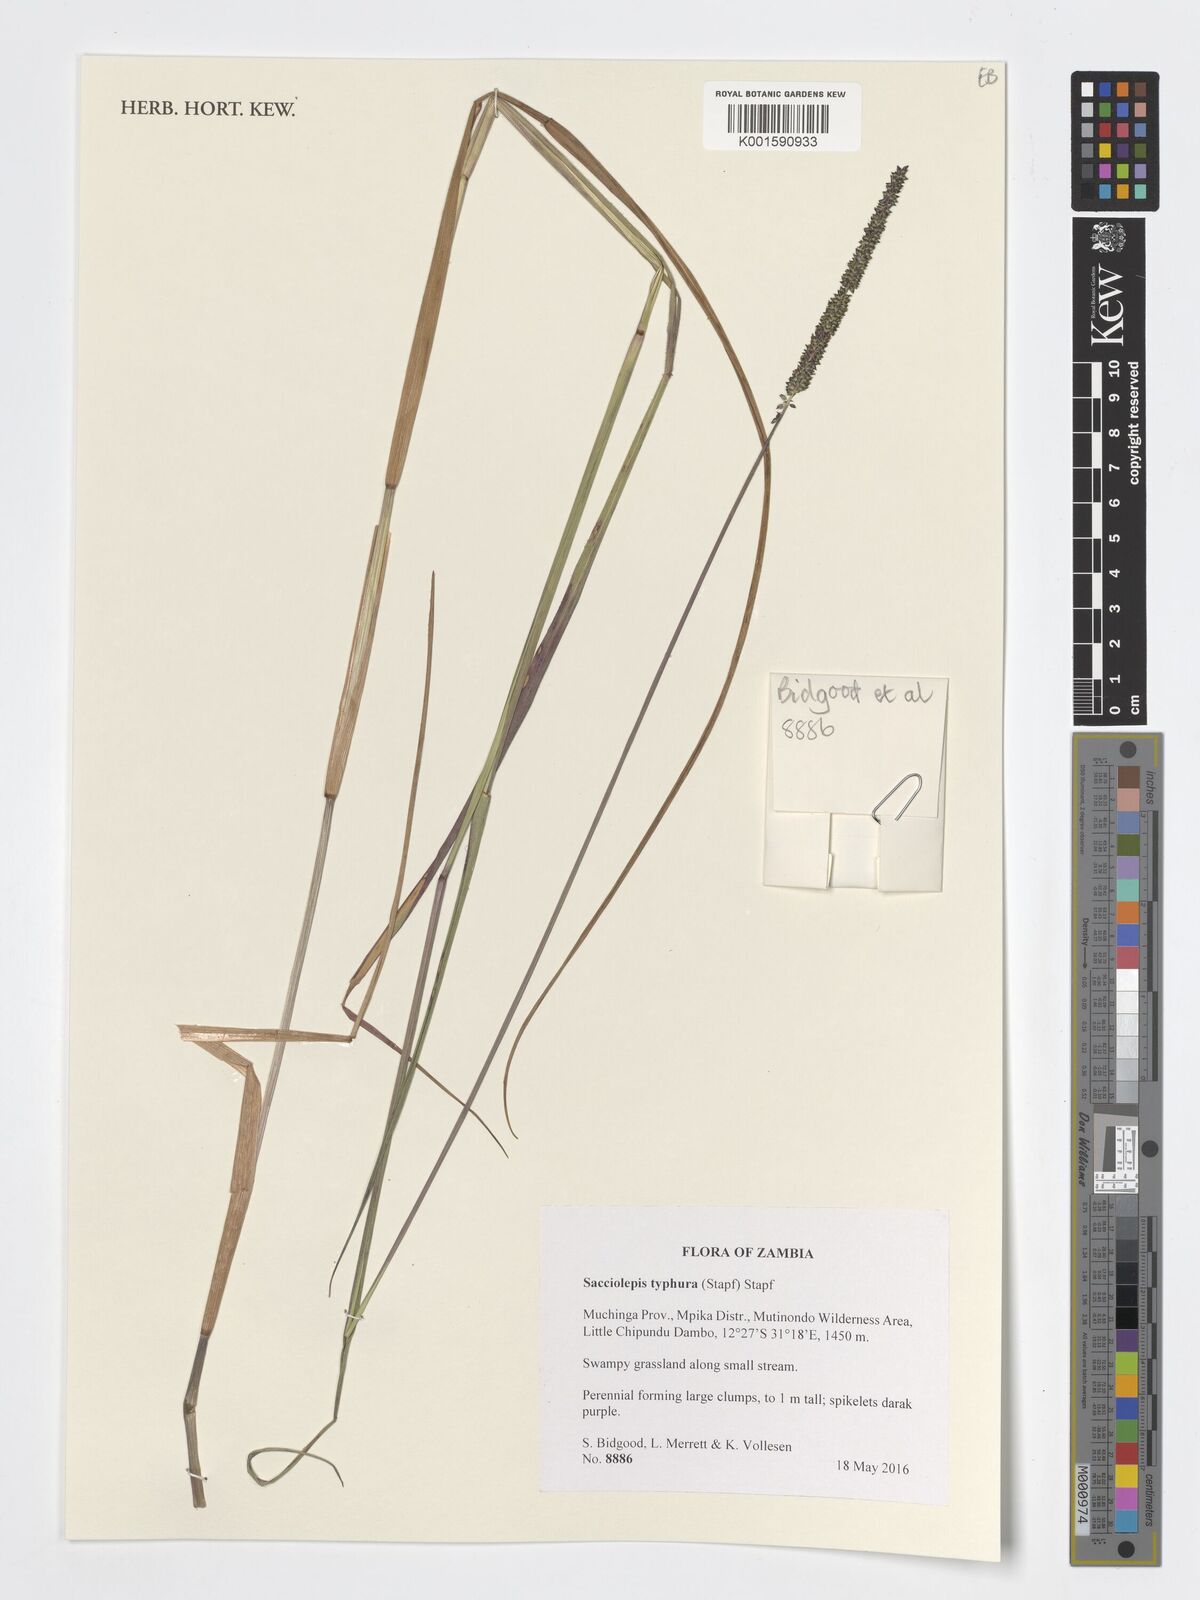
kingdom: Plantae
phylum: Tracheophyta
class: Liliopsida
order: Poales
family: Poaceae
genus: Sacciolepis
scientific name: Sacciolepis typhura
